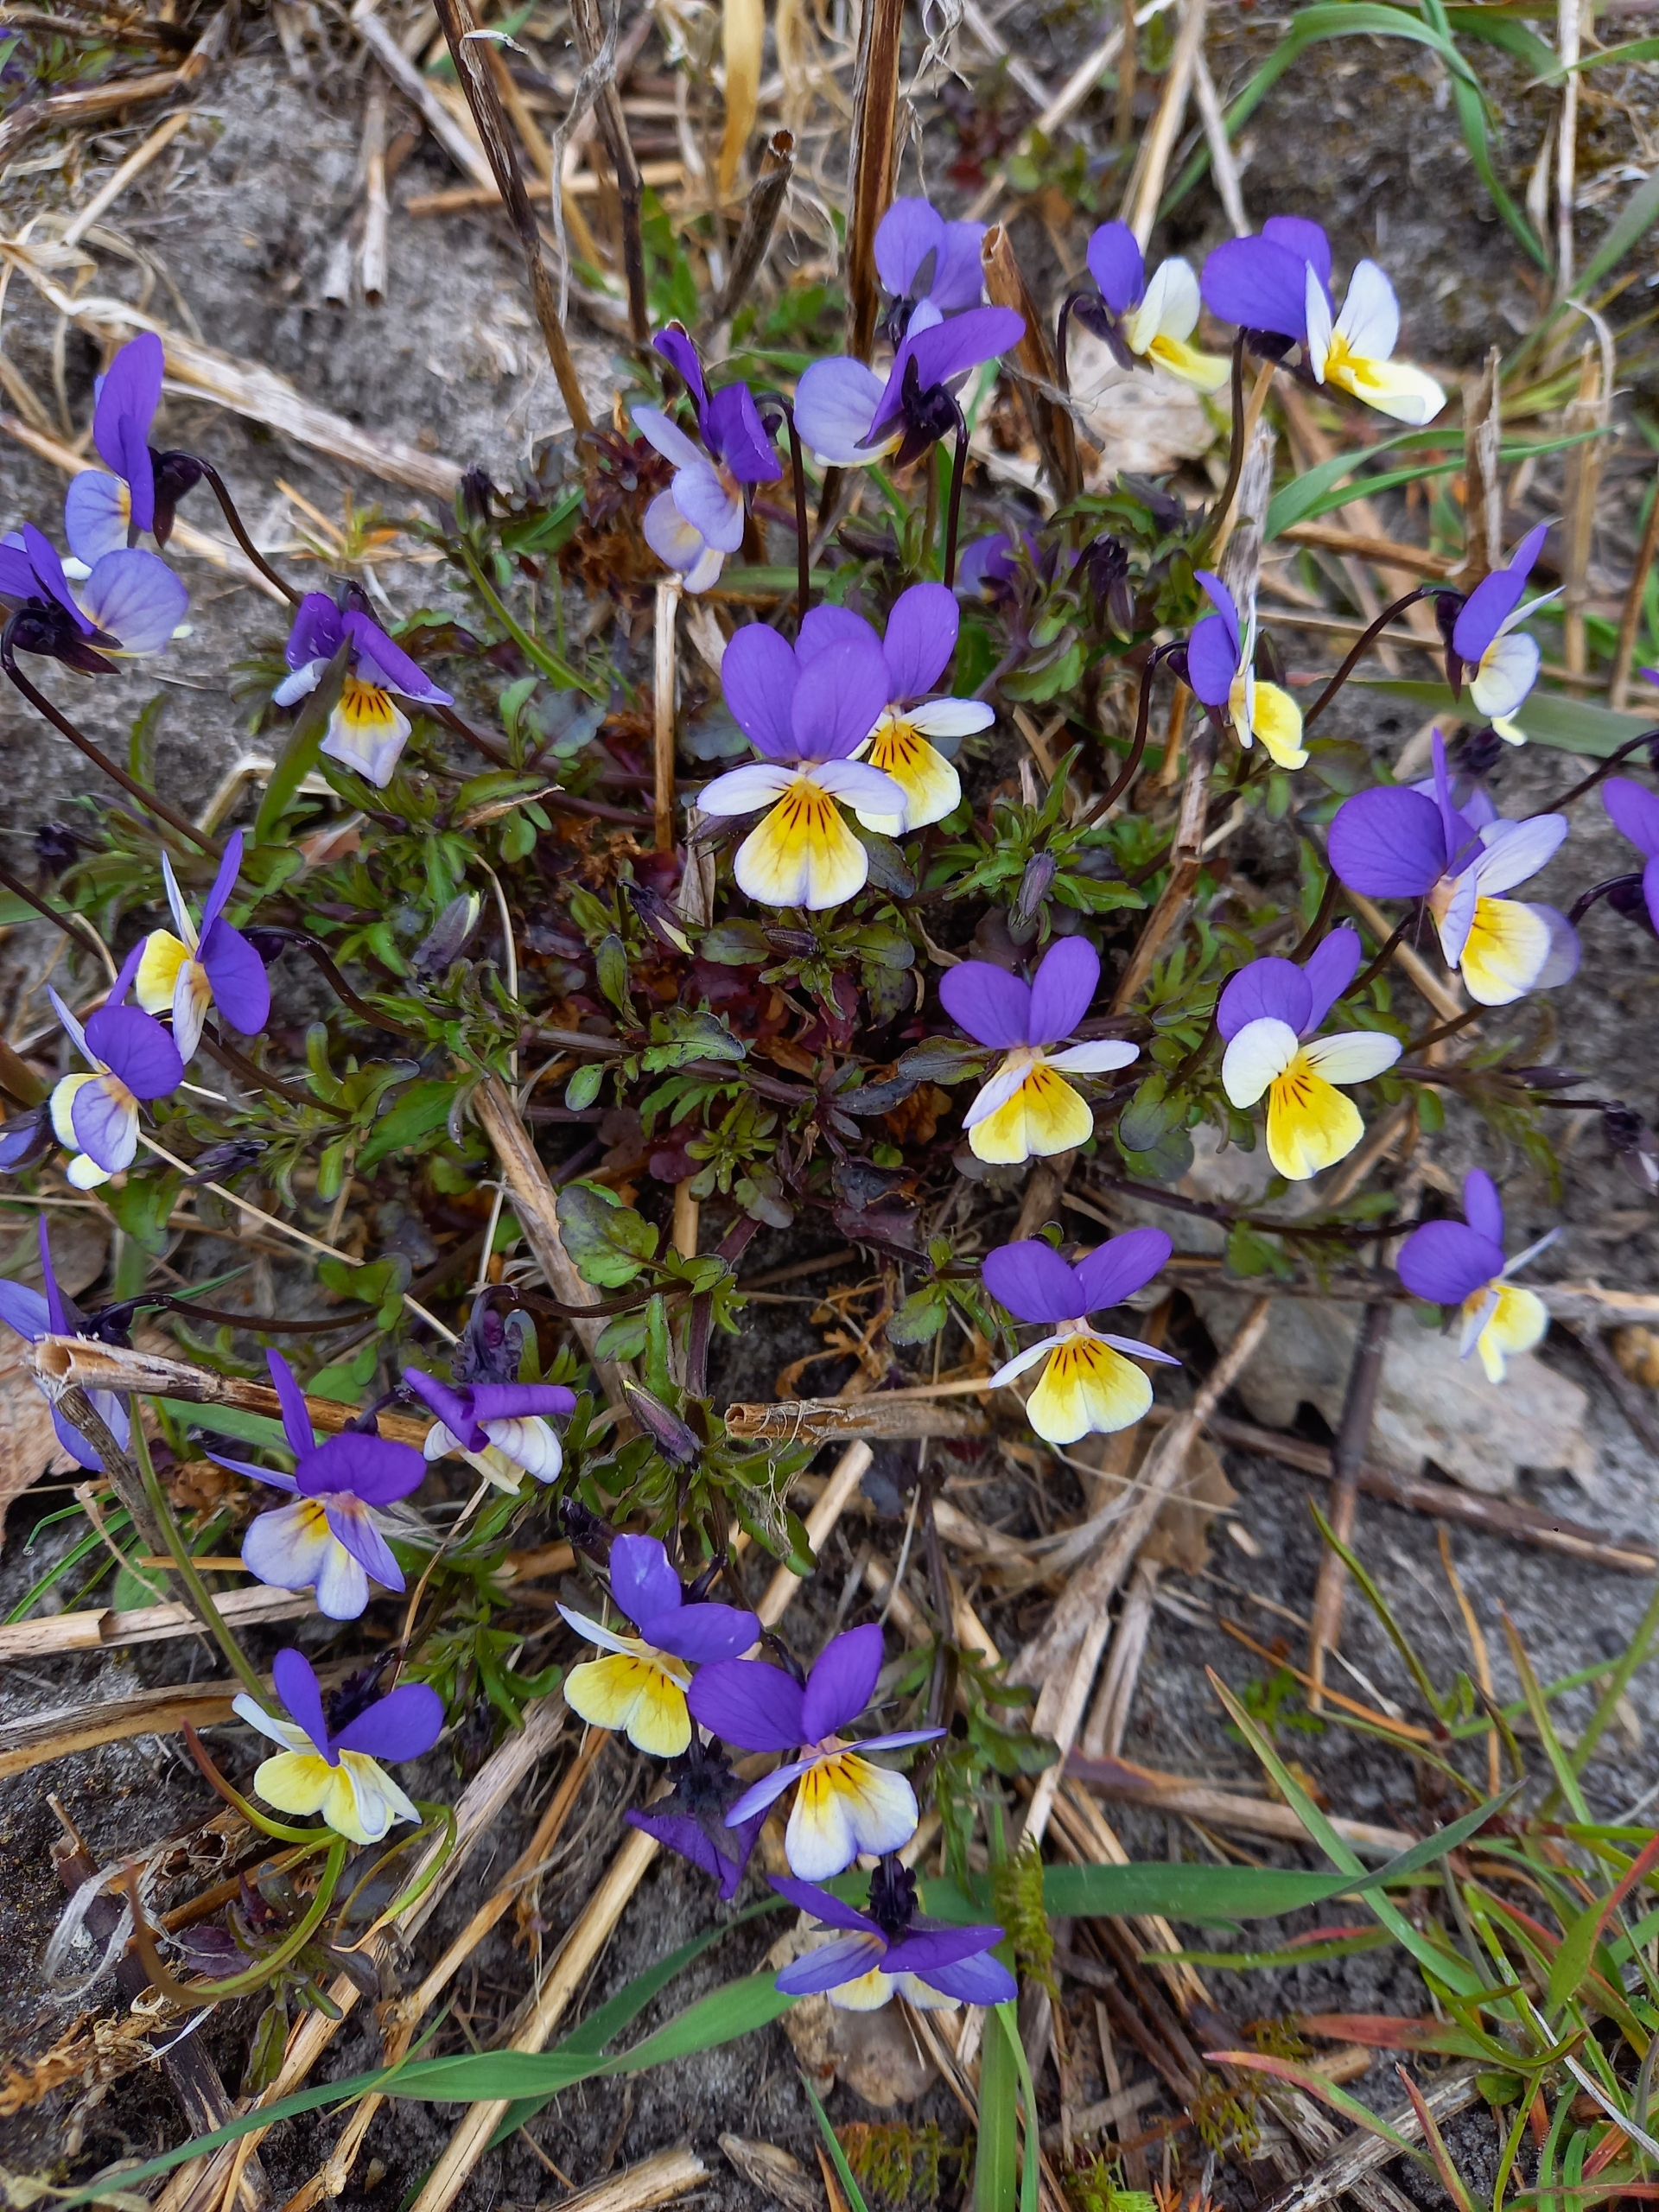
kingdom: Plantae
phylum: Tracheophyta
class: Magnoliopsida
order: Malpighiales
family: Violaceae
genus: Viola
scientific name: Viola tricolor
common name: Stedmoderblomst
